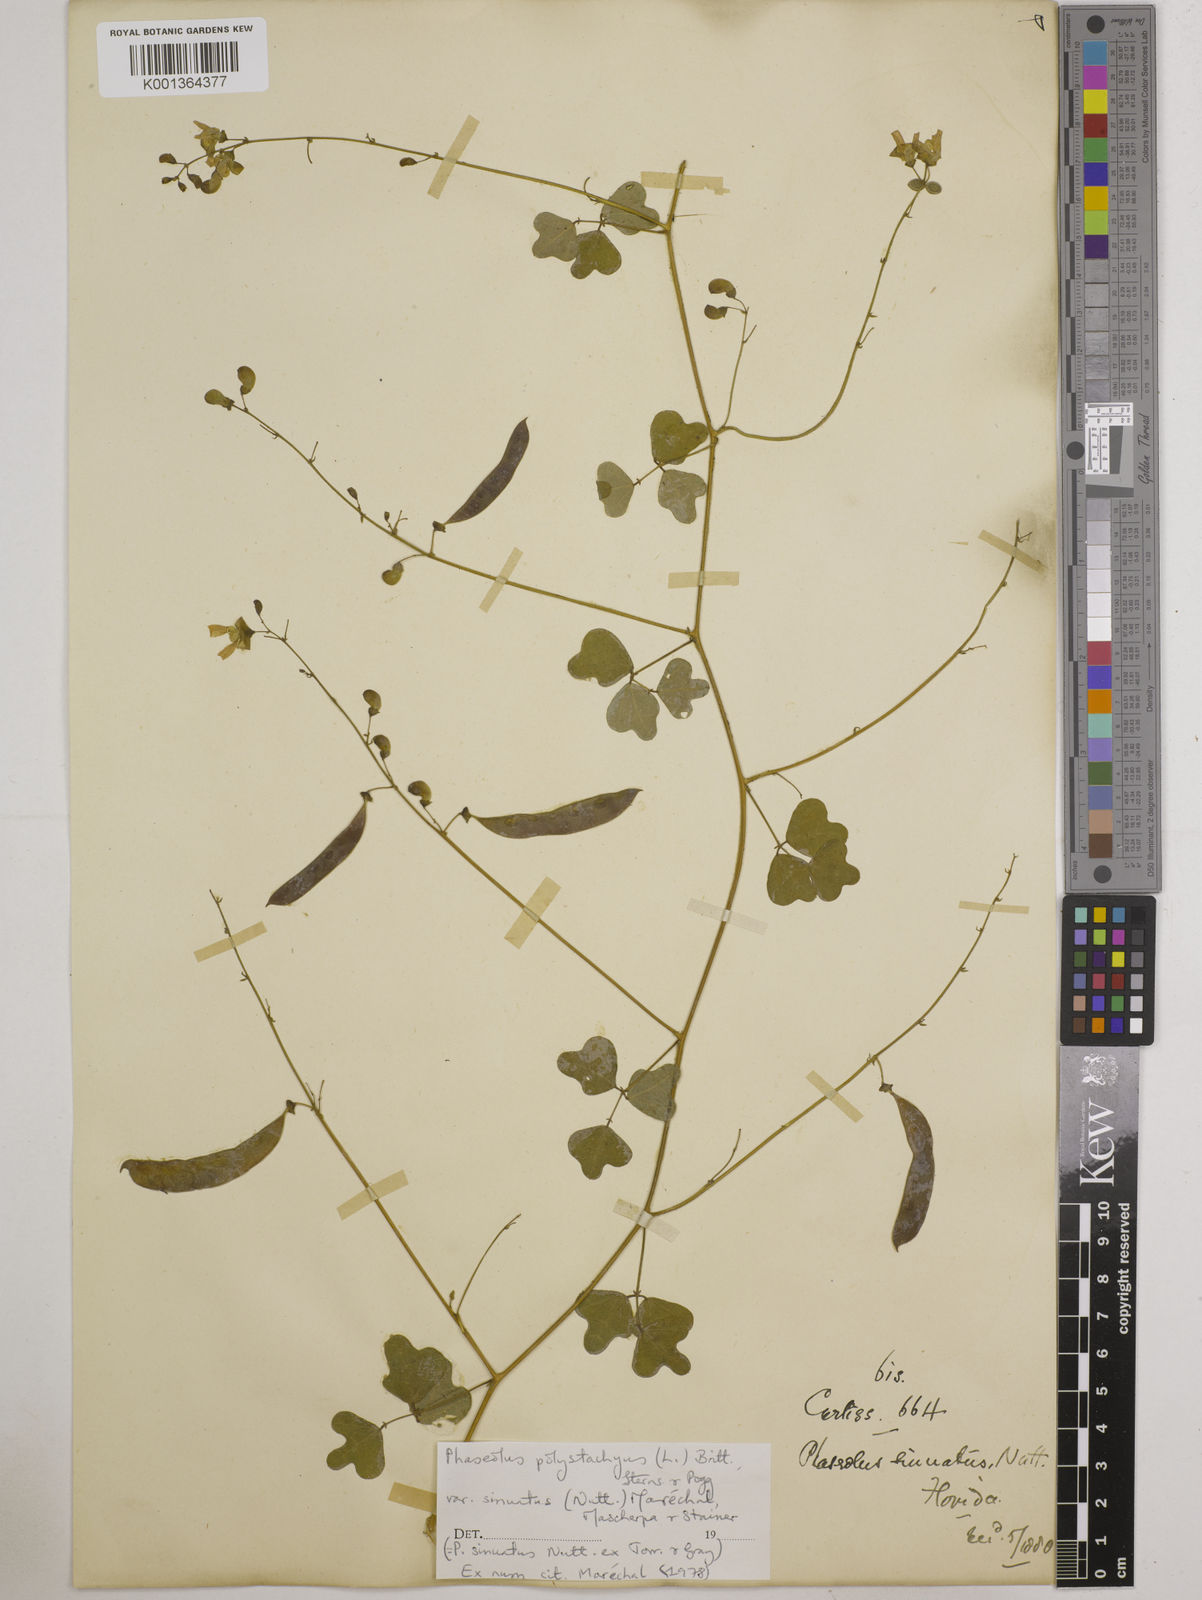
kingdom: Plantae
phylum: Tracheophyta
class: Magnoliopsida
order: Fabales
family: Fabaceae
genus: Phaseolus
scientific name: Phaseolus
